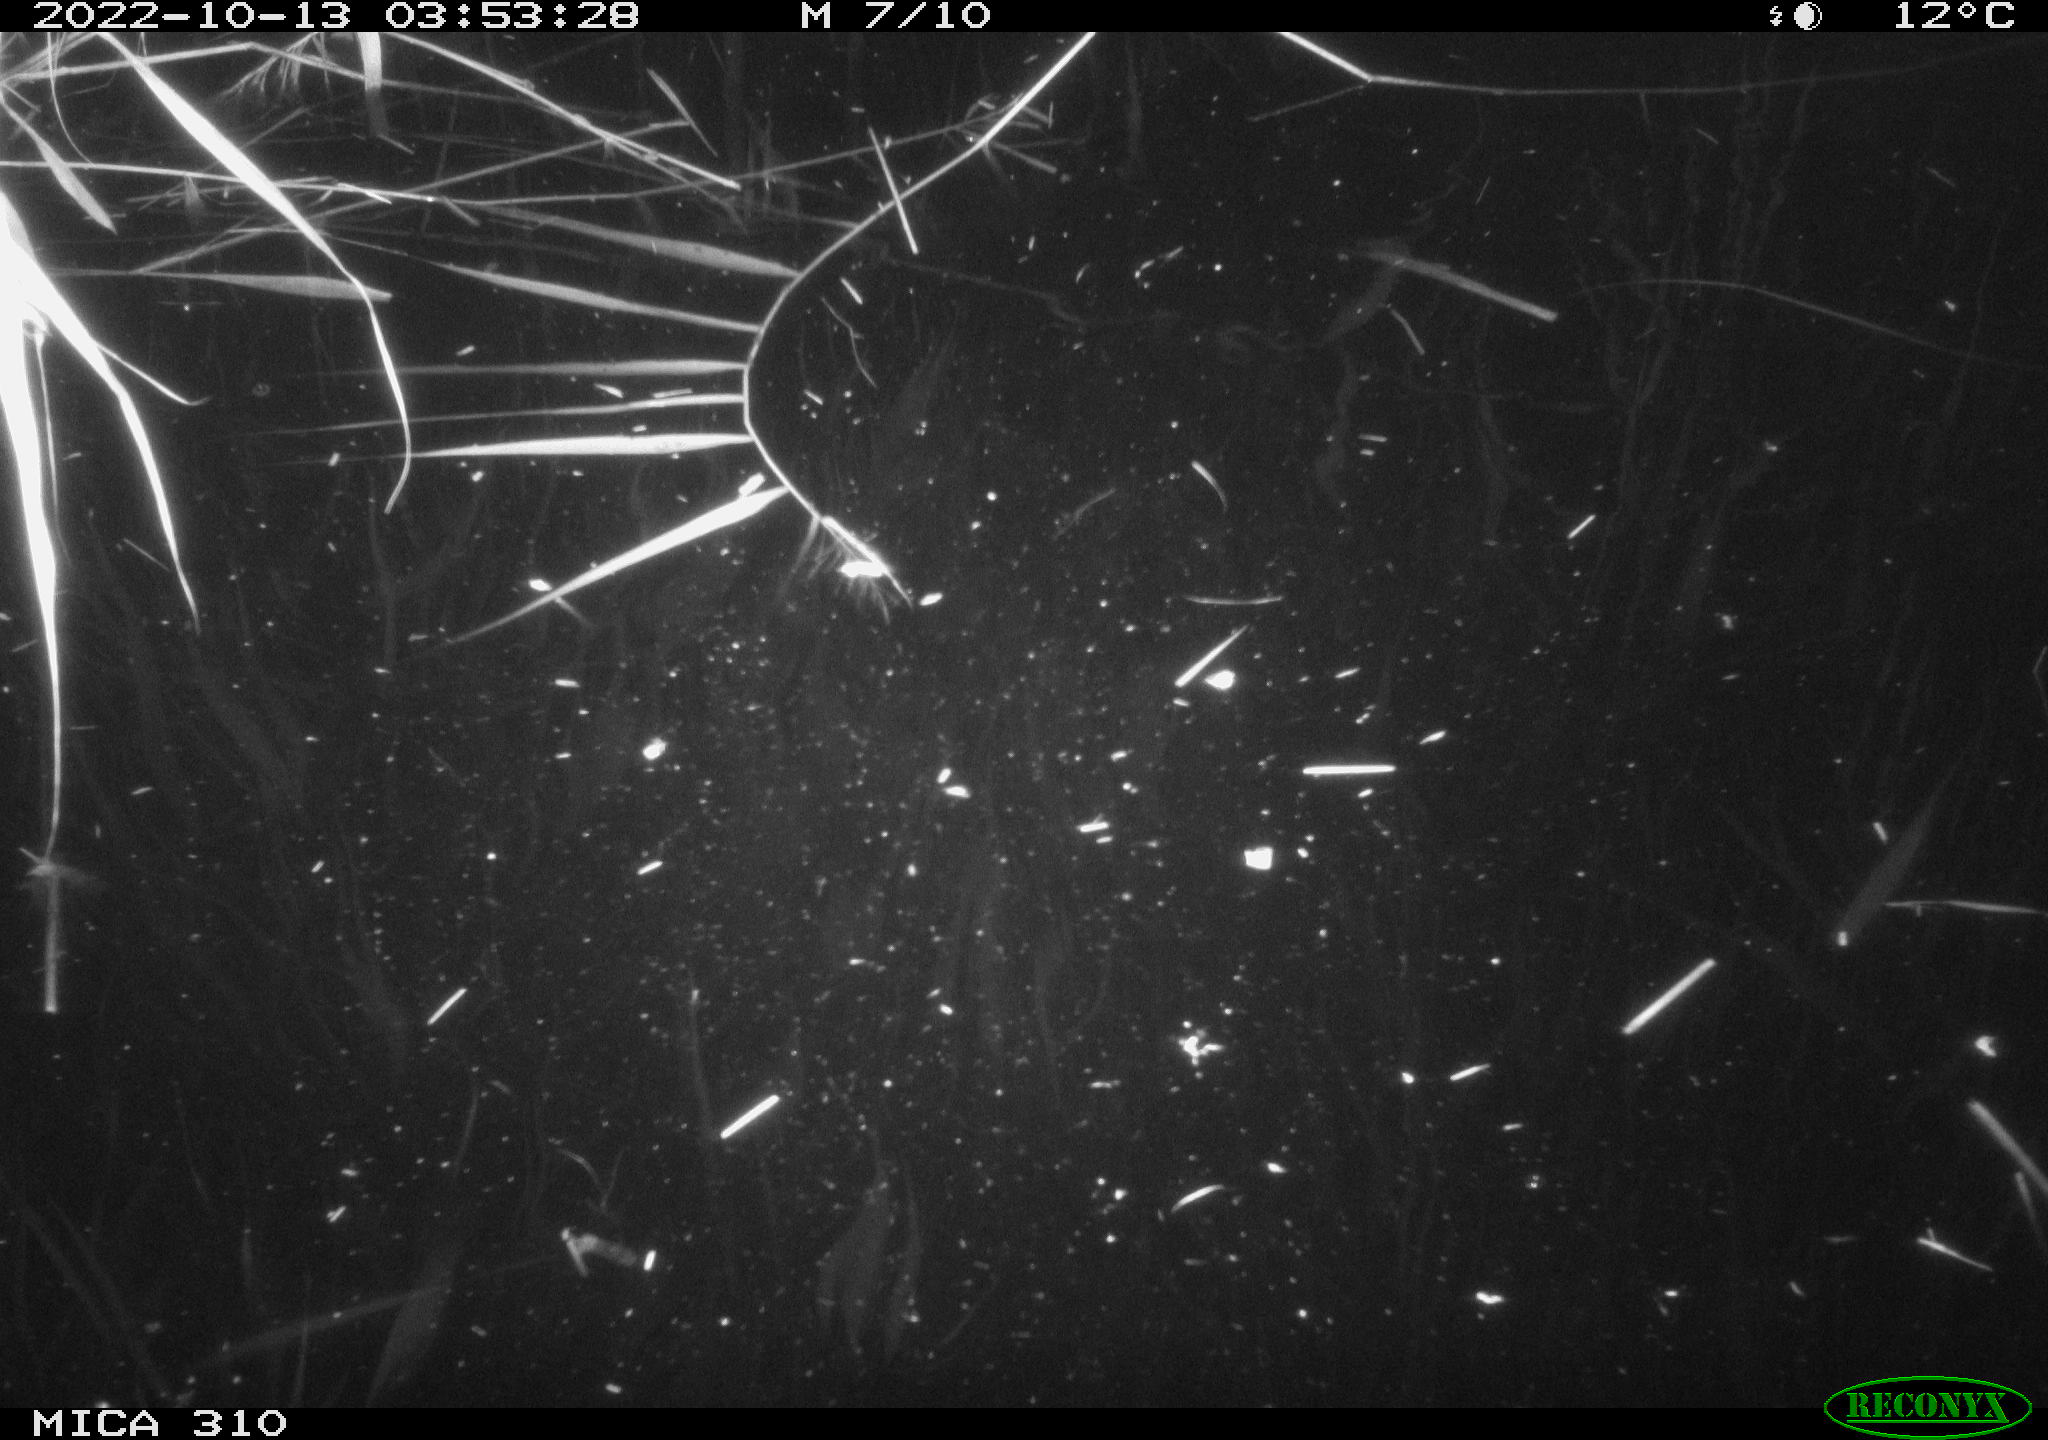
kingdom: Animalia
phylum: Chordata
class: Mammalia
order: Rodentia
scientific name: Rodentia
